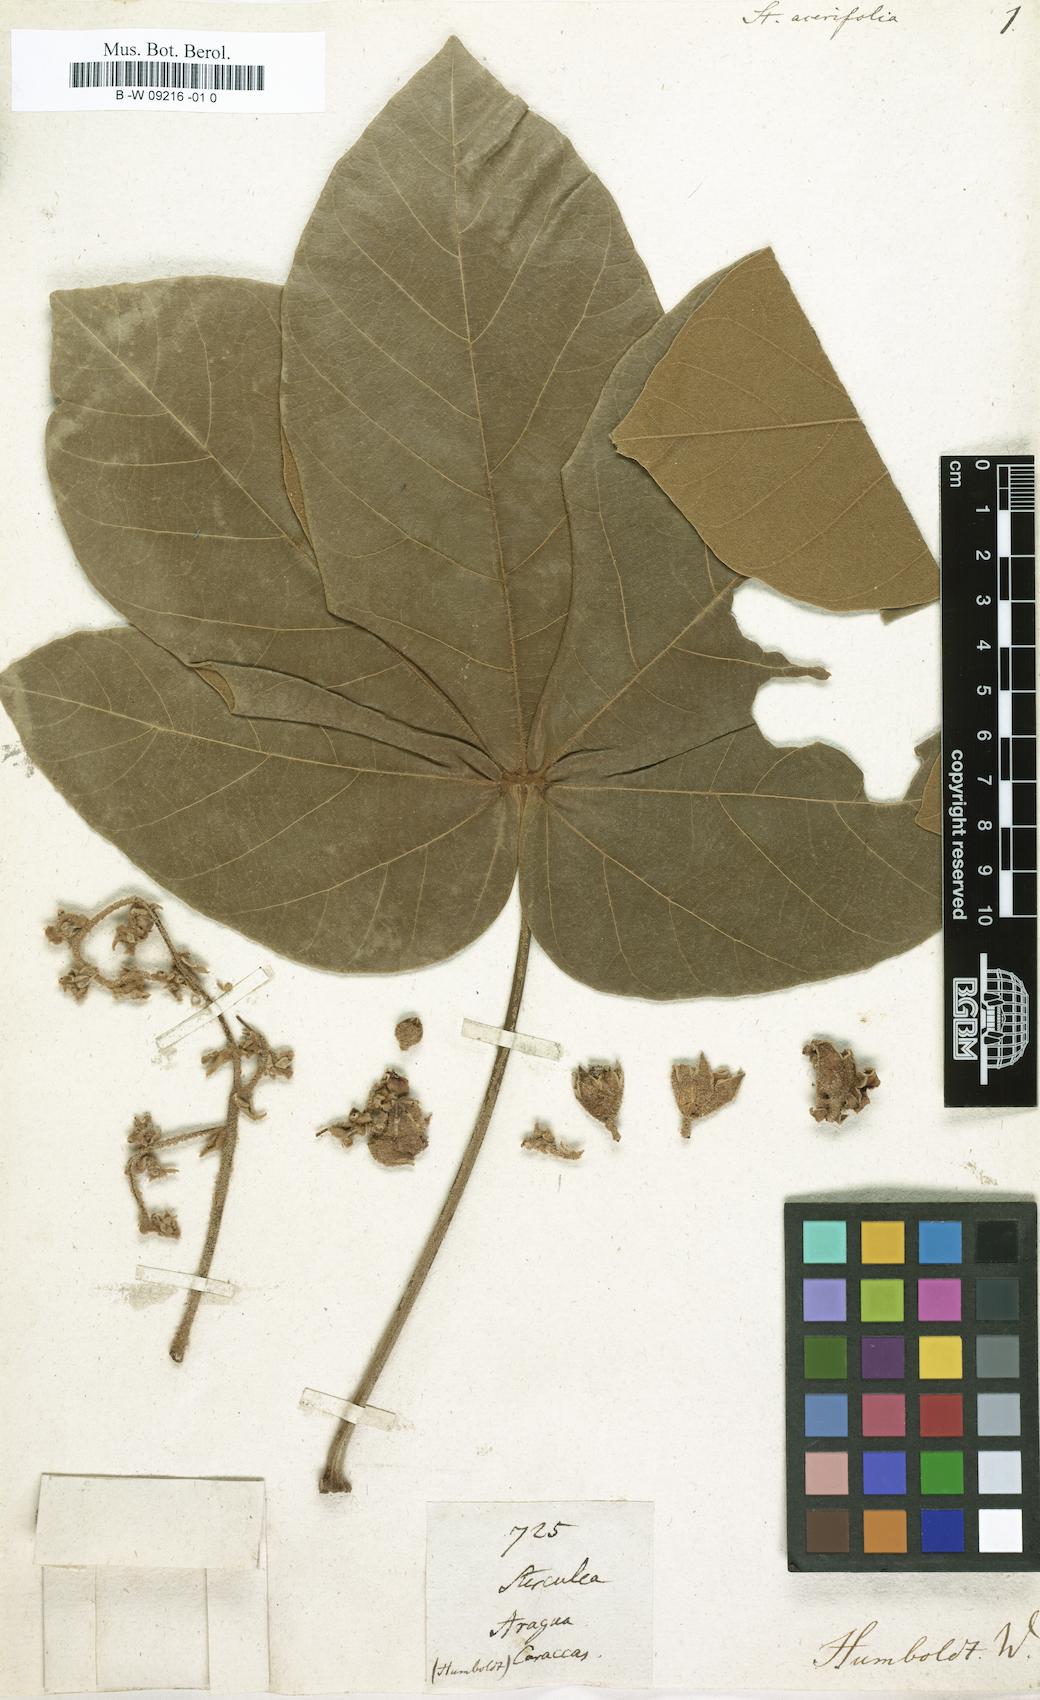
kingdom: Plantae
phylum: Tracheophyta
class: Magnoliopsida
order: Malvales
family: Malvaceae
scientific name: Malvaceae
